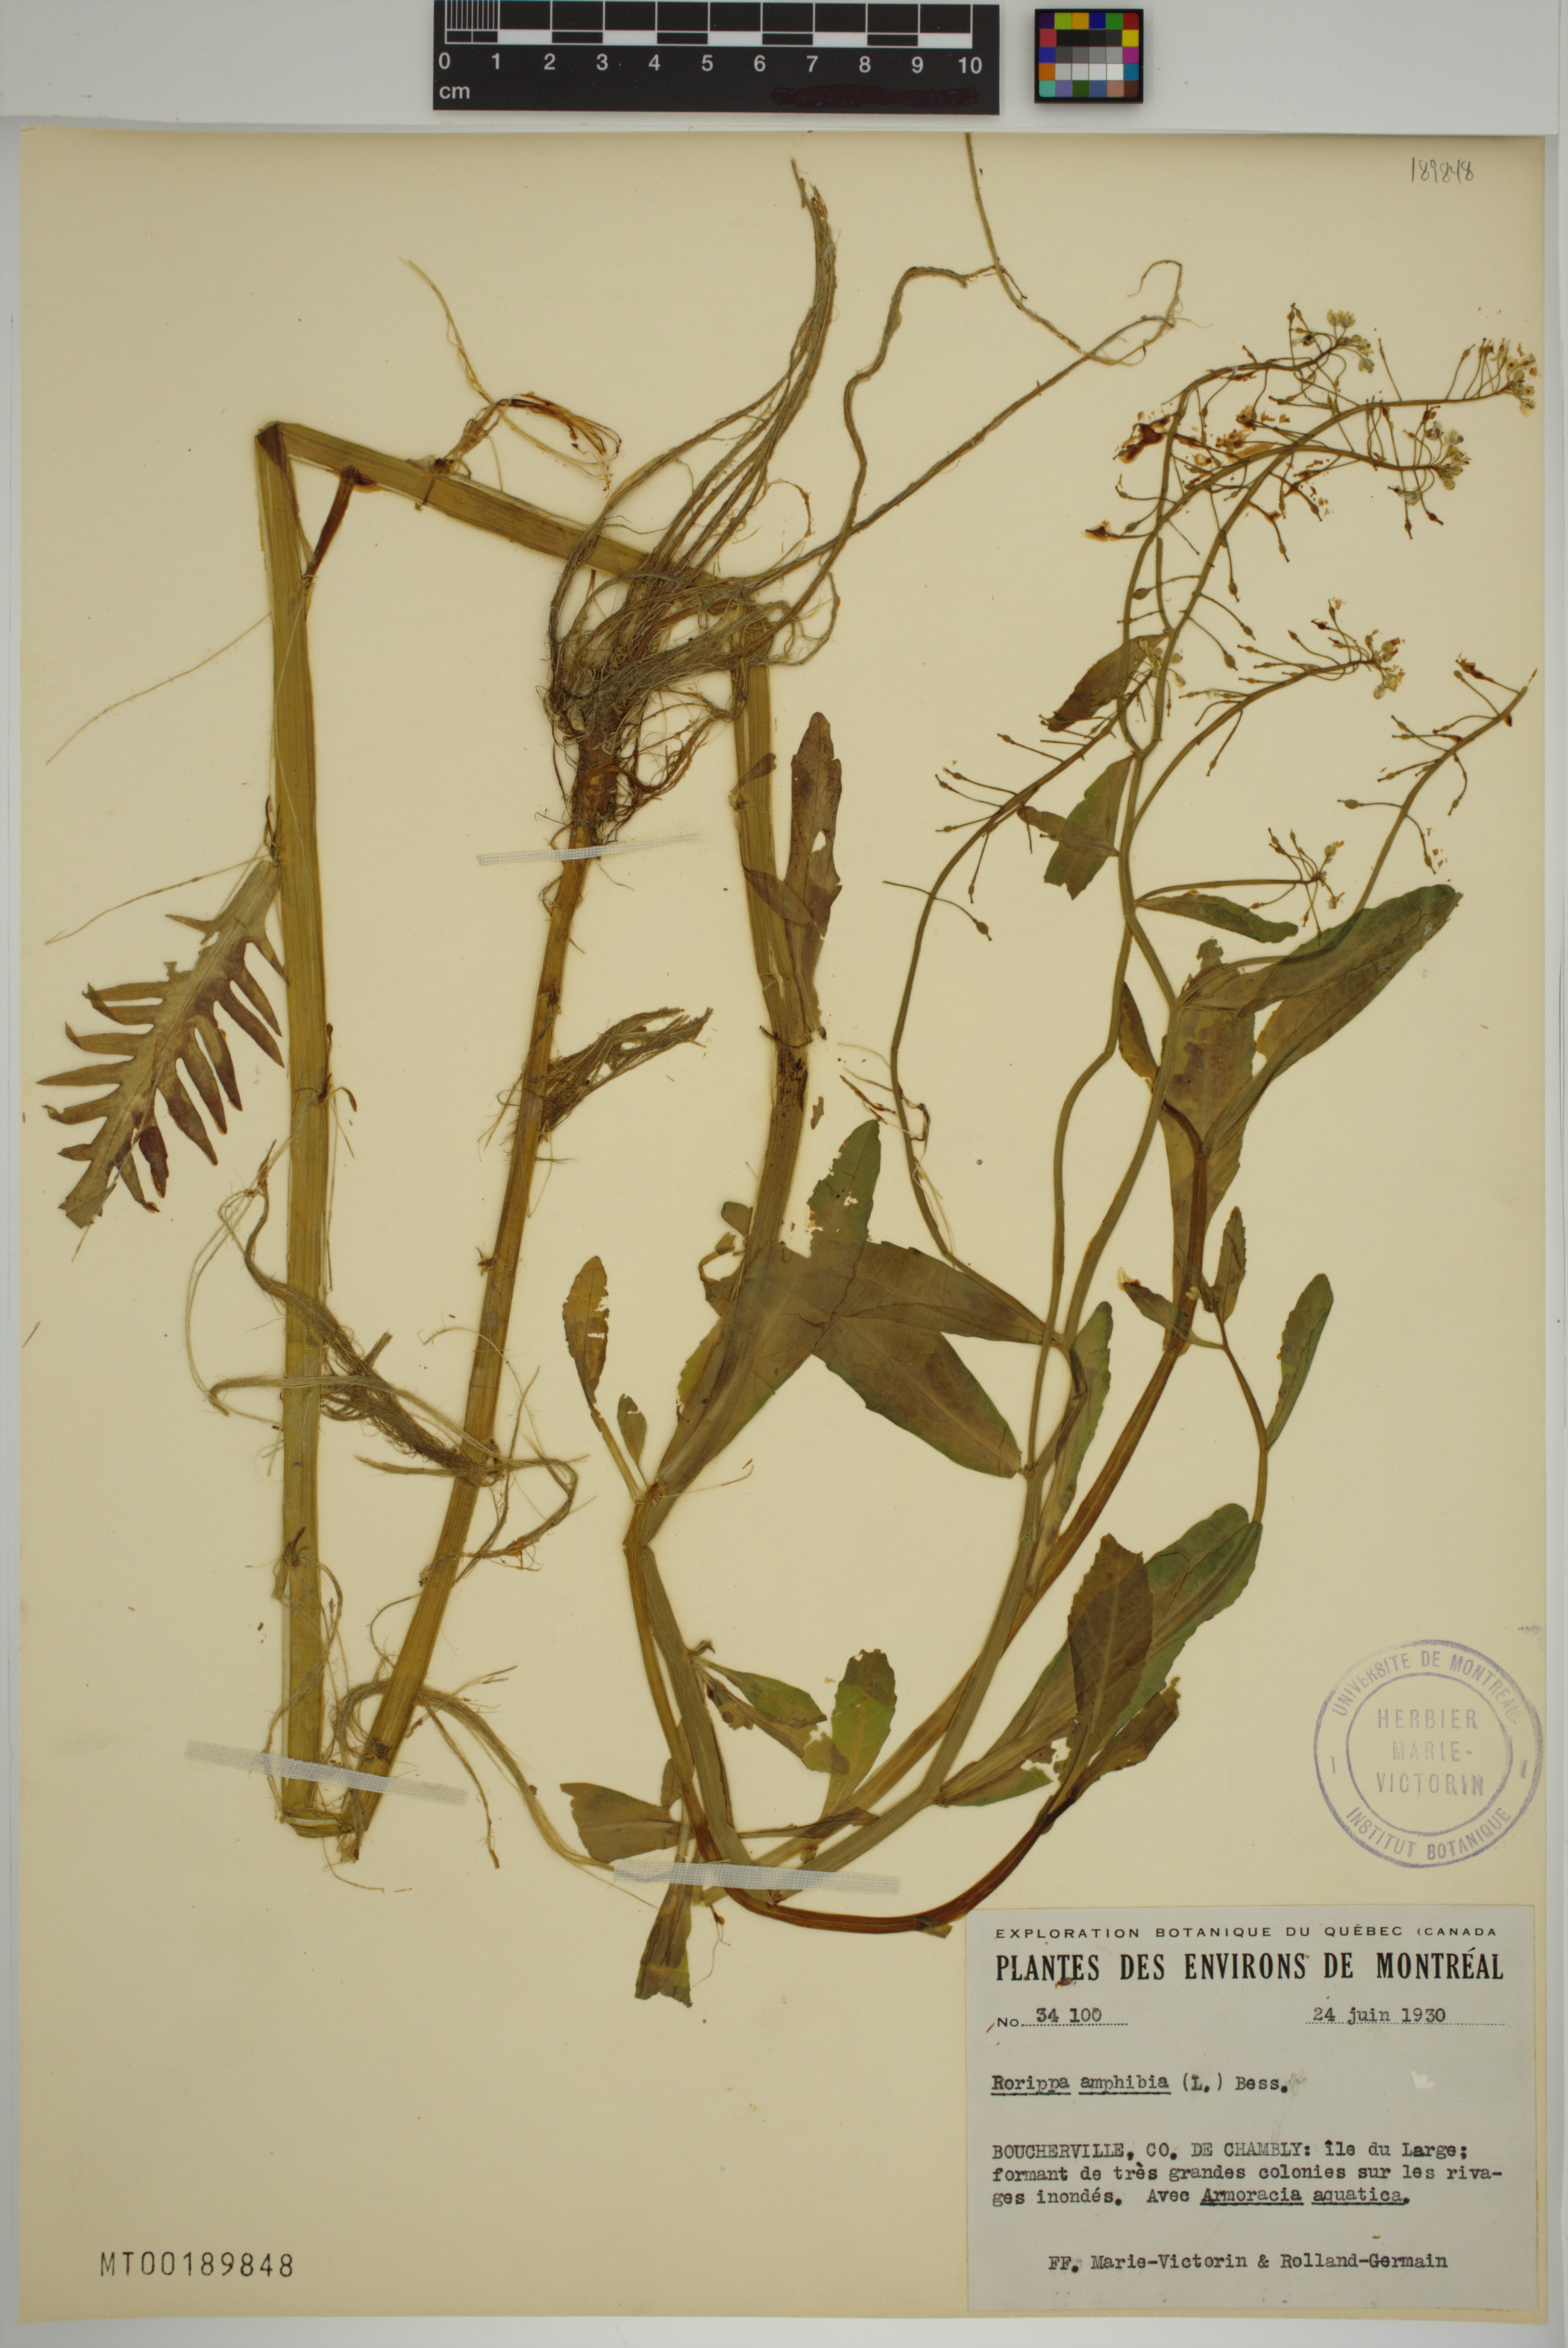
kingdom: Plantae
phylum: Tracheophyta
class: Magnoliopsida
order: Brassicales
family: Brassicaceae
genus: Rorippa
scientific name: Rorippa amphibia
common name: Great yellow-cress
